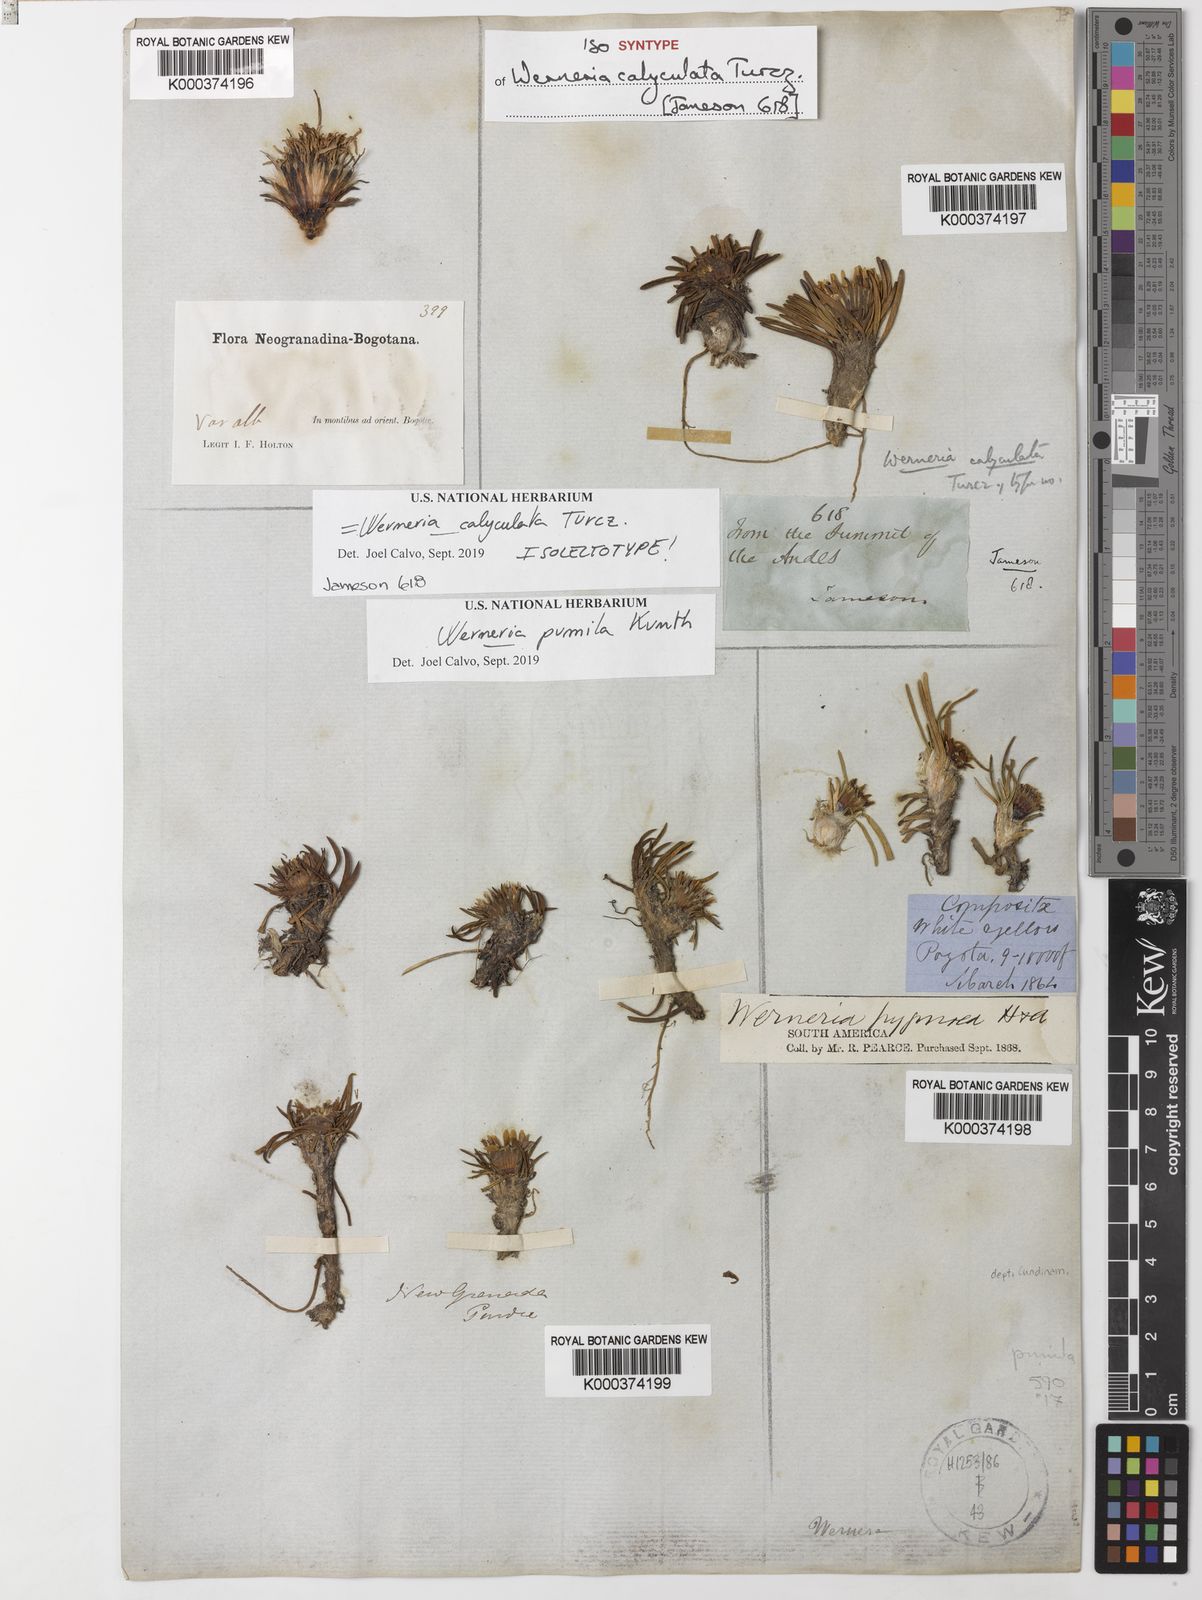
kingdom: Plantae
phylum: Tracheophyta
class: Magnoliopsida
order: Asterales
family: Asteraceae
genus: Rockhausenia
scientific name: Rockhausenia pumila
